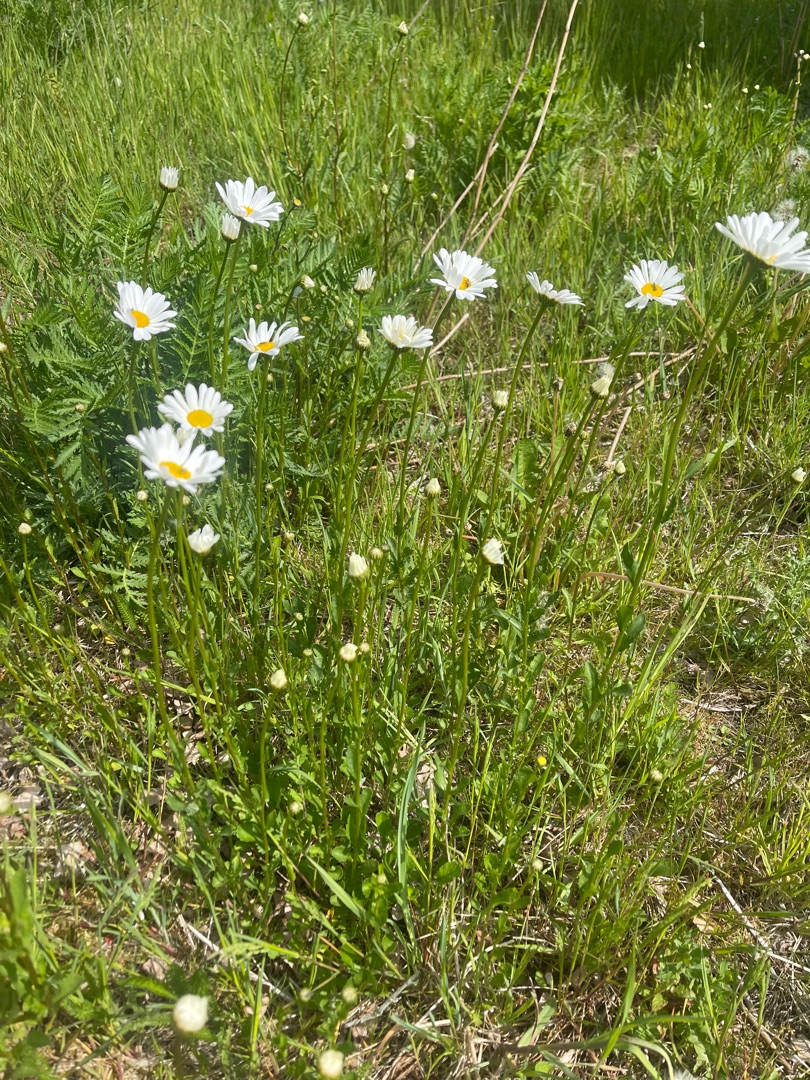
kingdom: Plantae
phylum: Tracheophyta
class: Magnoliopsida
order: Asterales
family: Asteraceae
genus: Leucanthemum
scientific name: Leucanthemum vulgare
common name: Hvid okseøje
